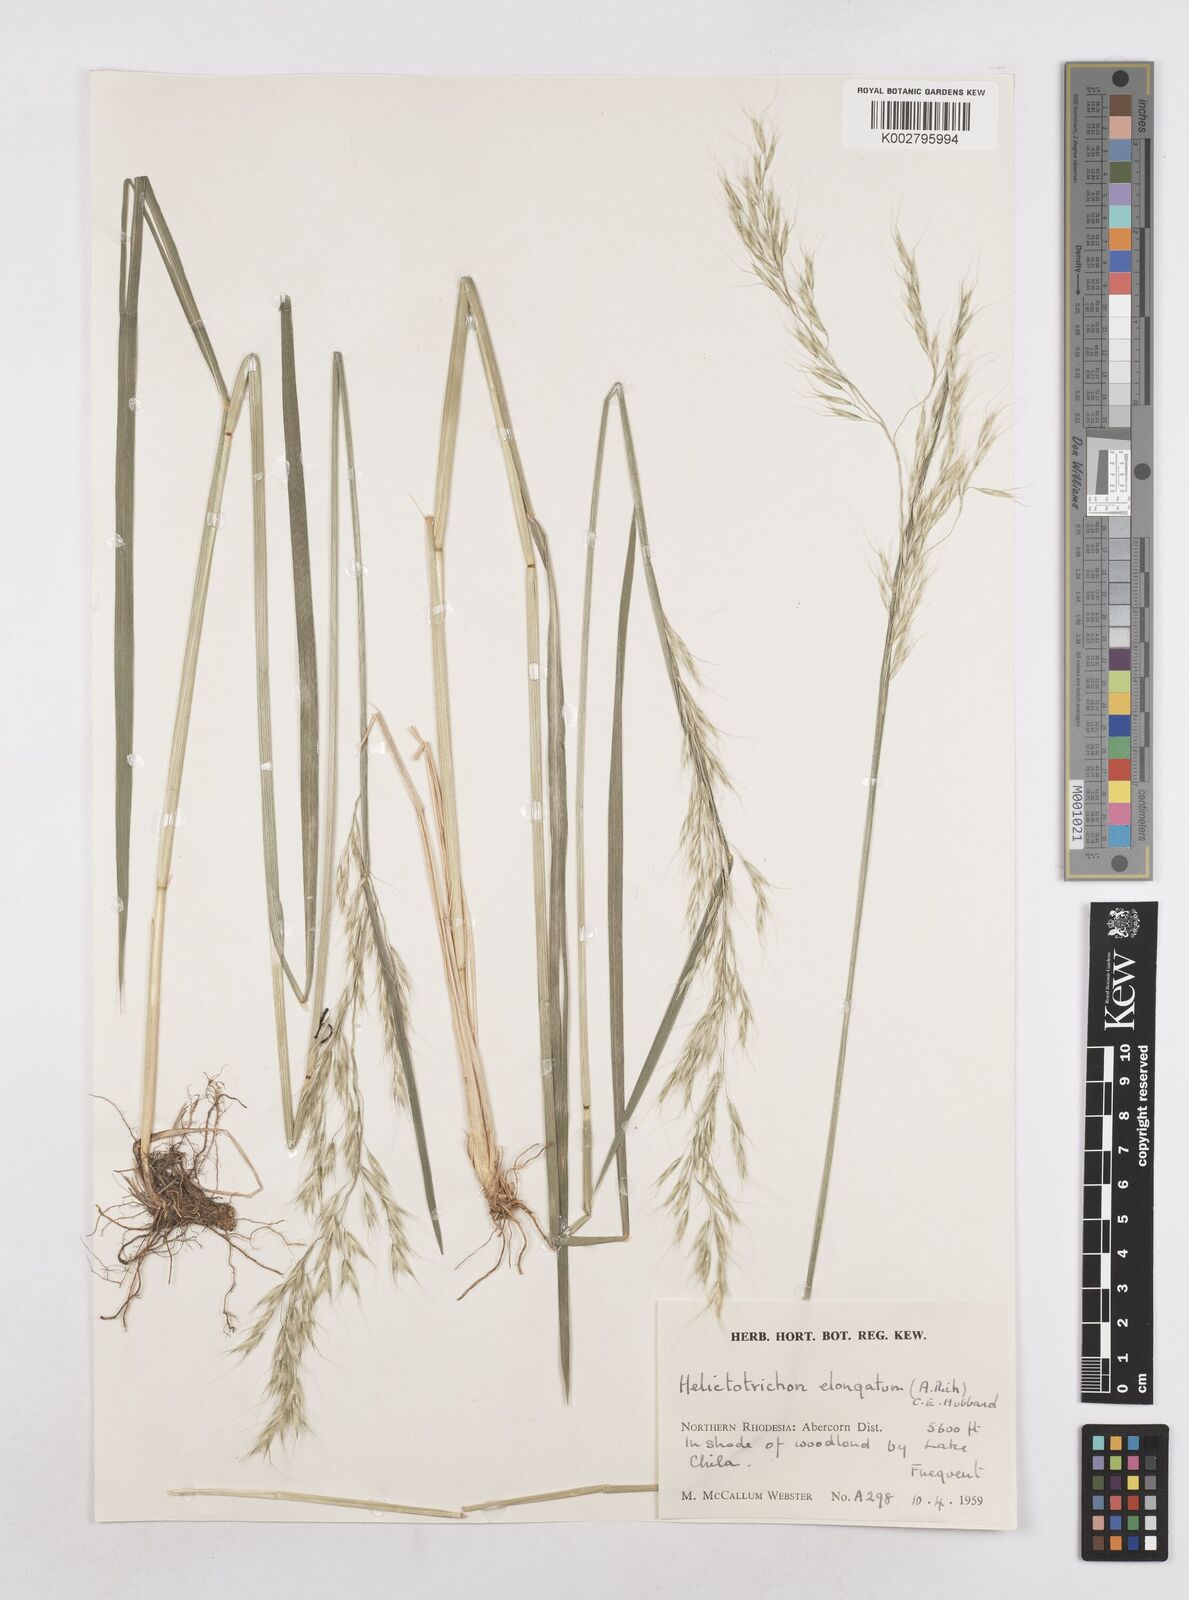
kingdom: Plantae
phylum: Tracheophyta
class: Liliopsida
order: Poales
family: Poaceae
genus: Trisetopsis
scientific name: Trisetopsis elongata
